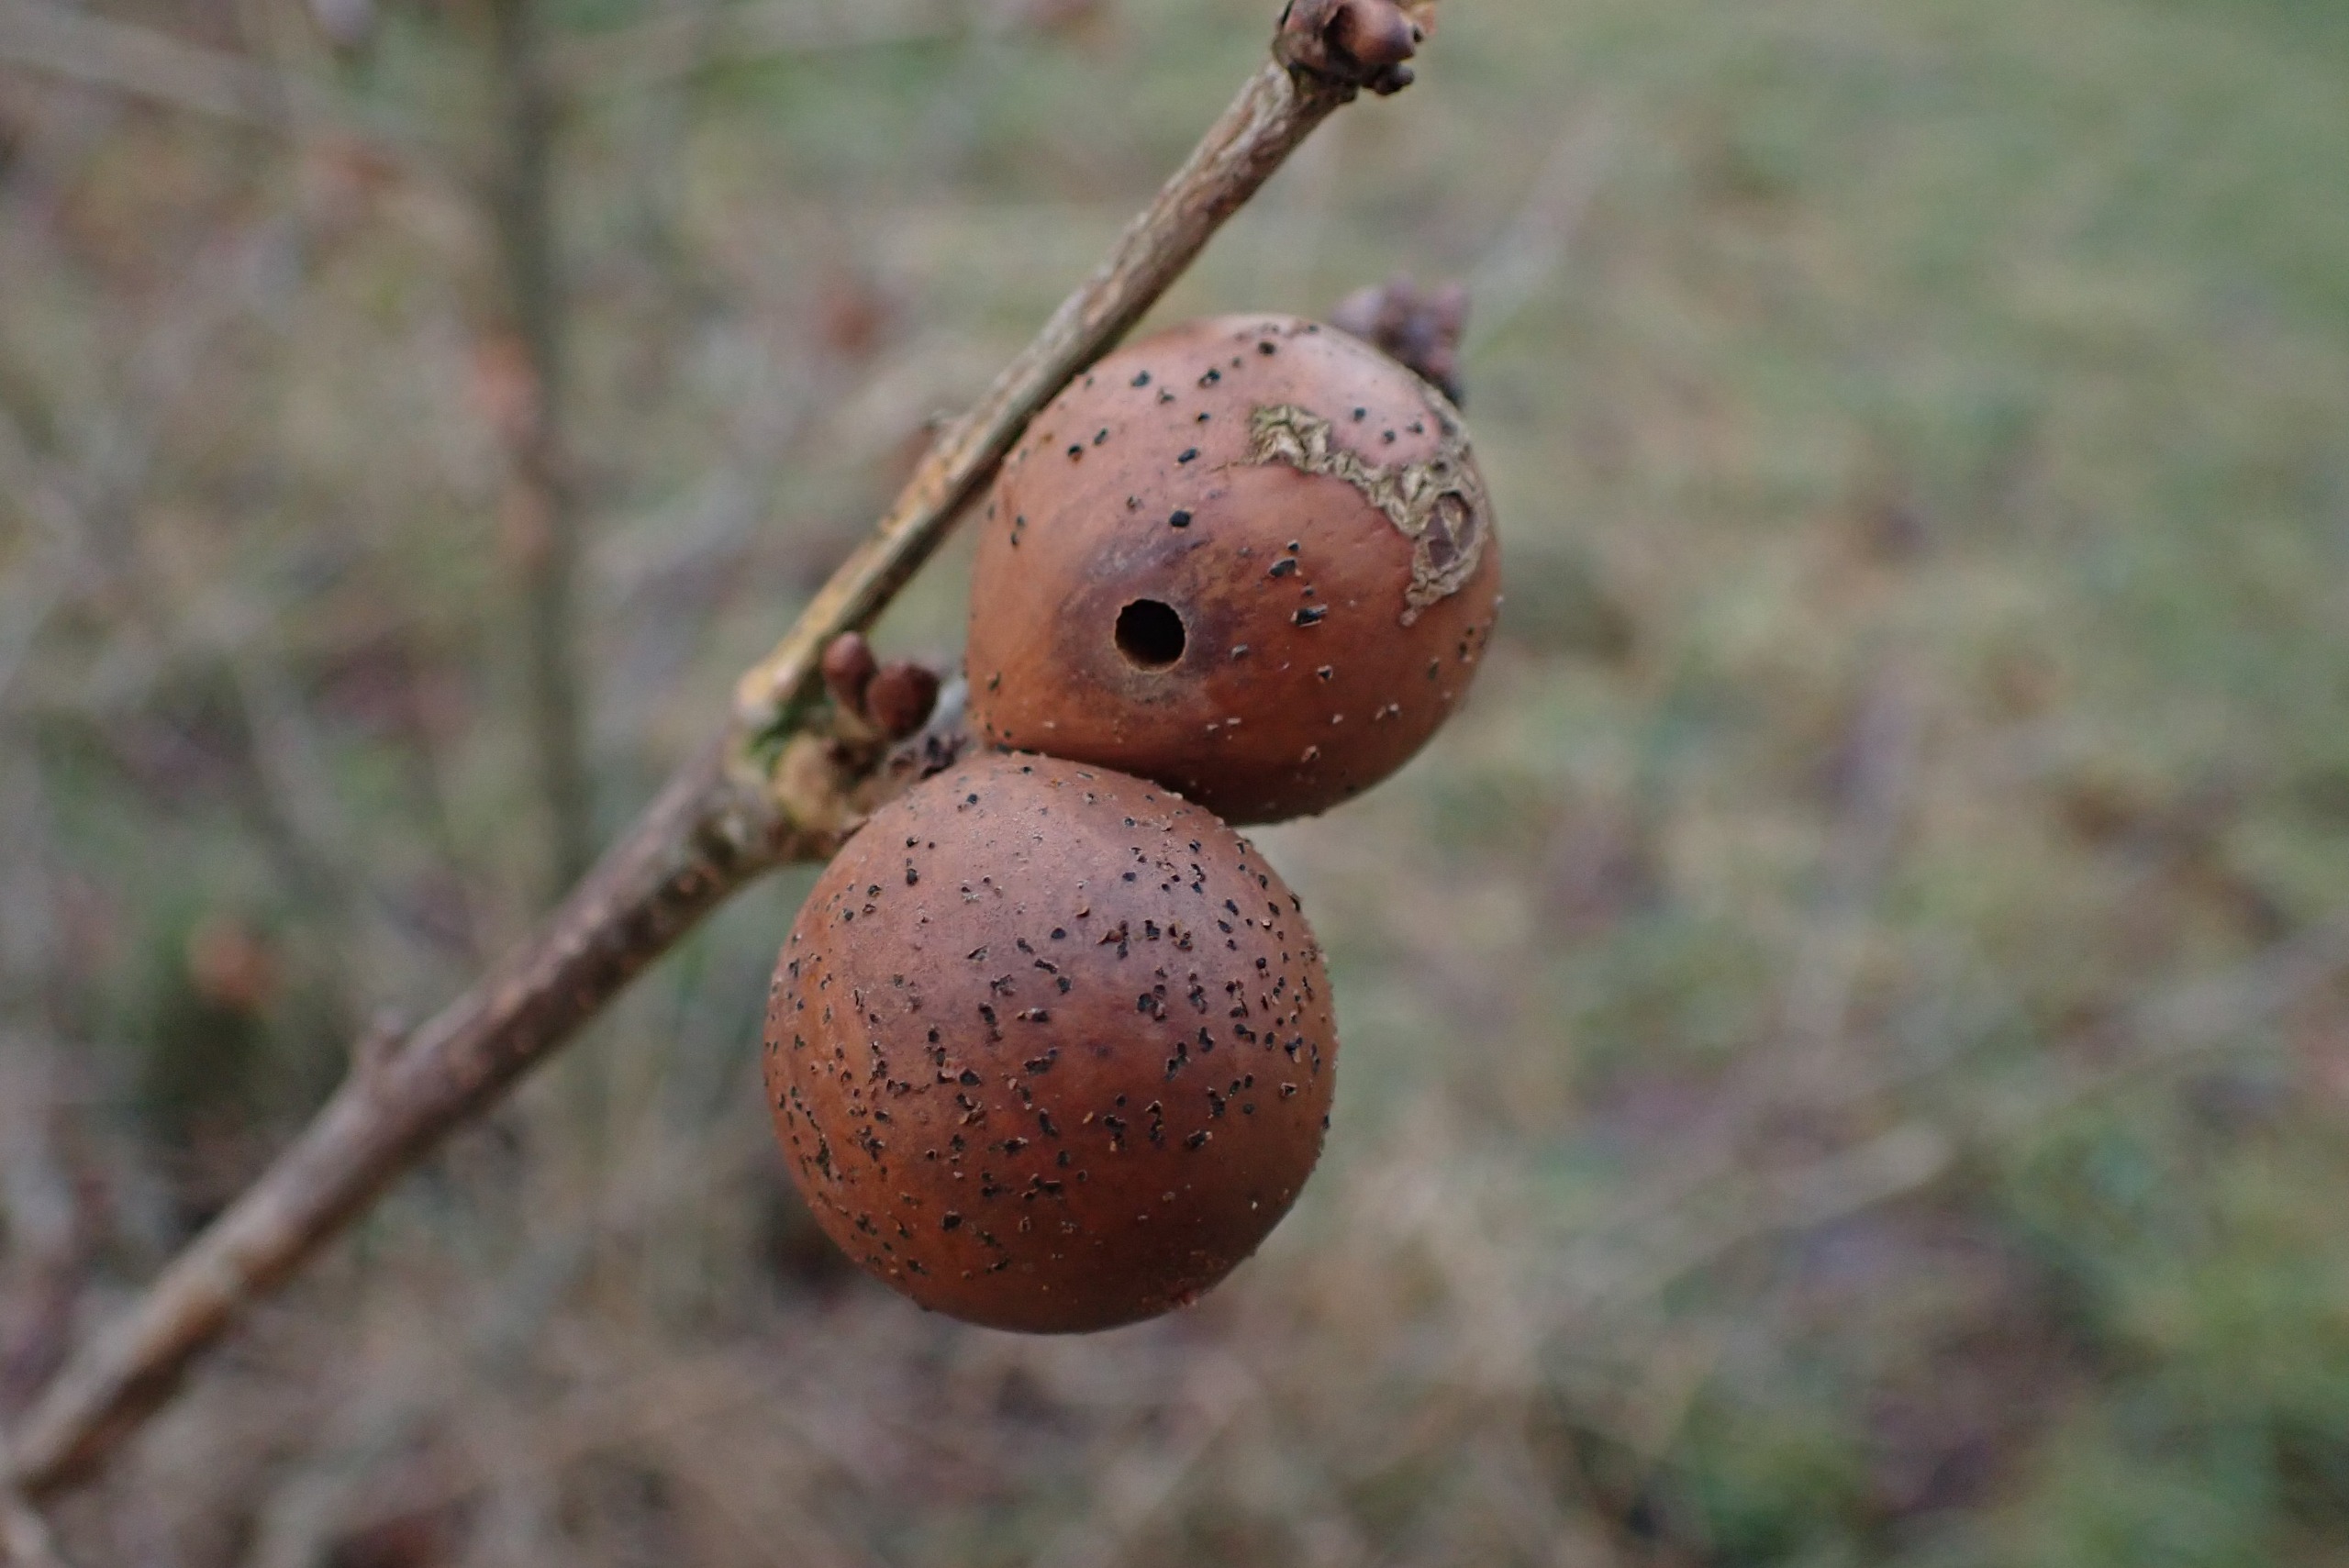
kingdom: Animalia
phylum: Arthropoda
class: Insecta
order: Hymenoptera
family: Cynipidae
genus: Andricus
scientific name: Andricus kollari
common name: Marmorkugle-galhveps
